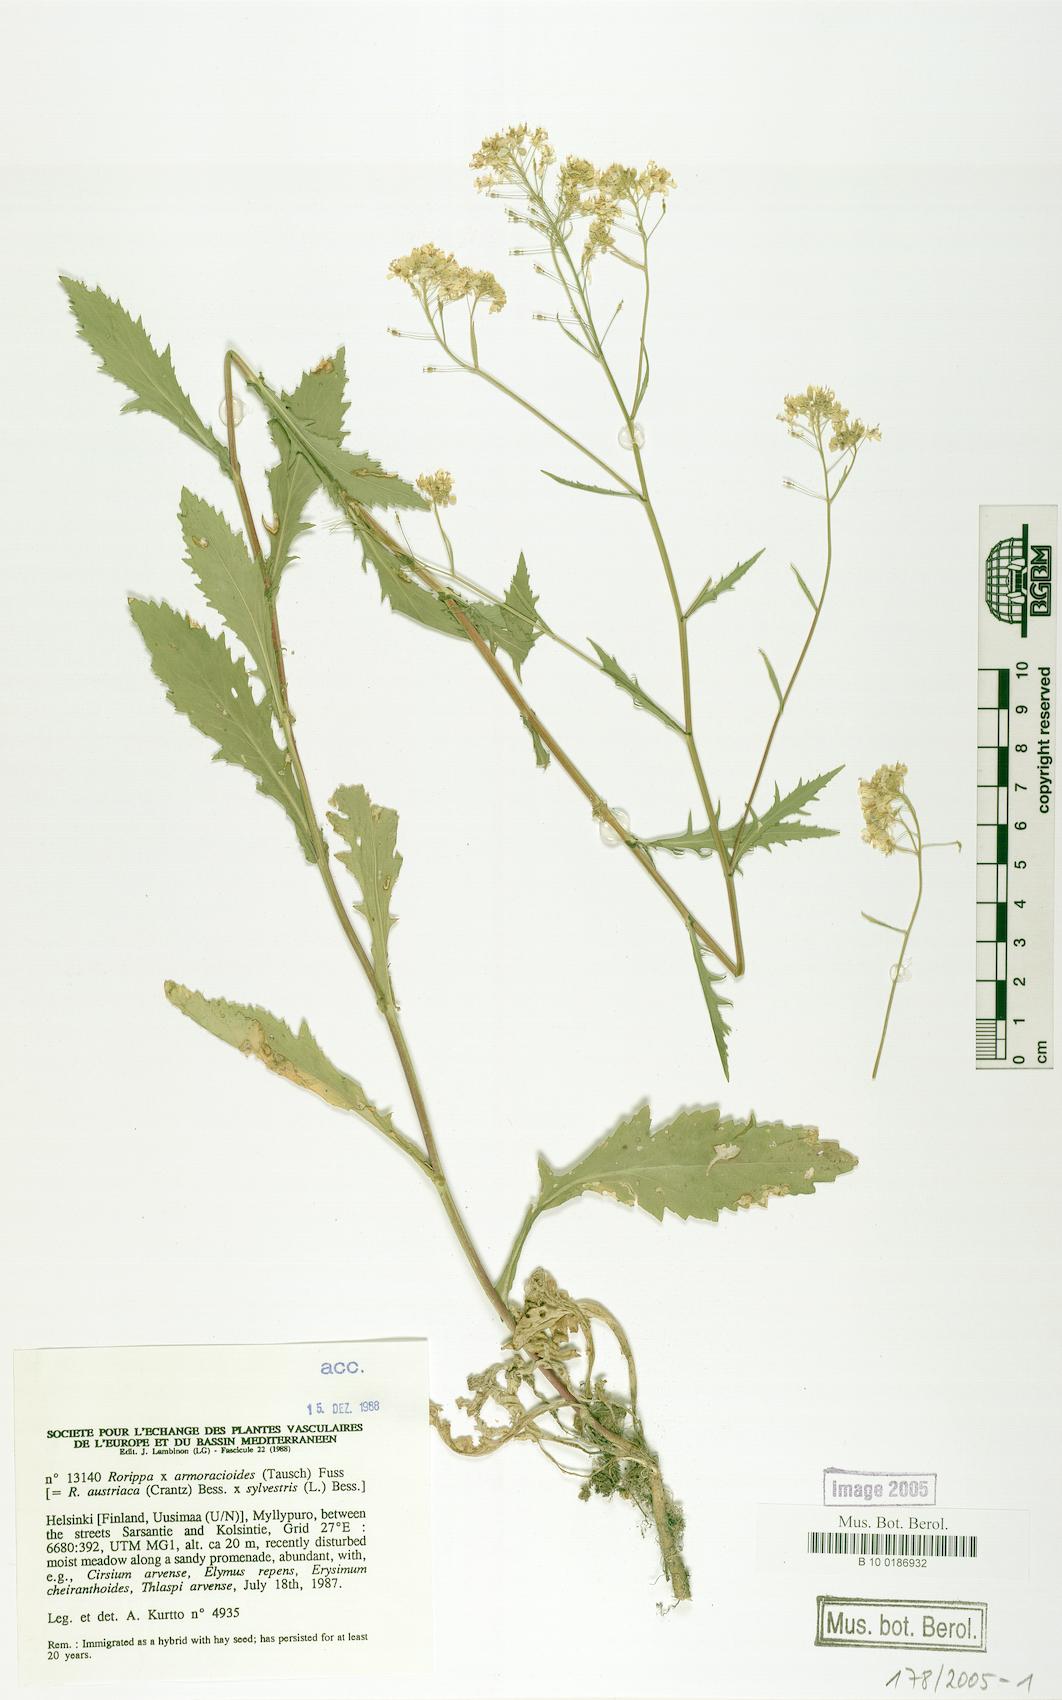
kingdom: Plantae
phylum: Tracheophyta
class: Magnoliopsida
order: Brassicales
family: Brassicaceae
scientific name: Brassicaceae
